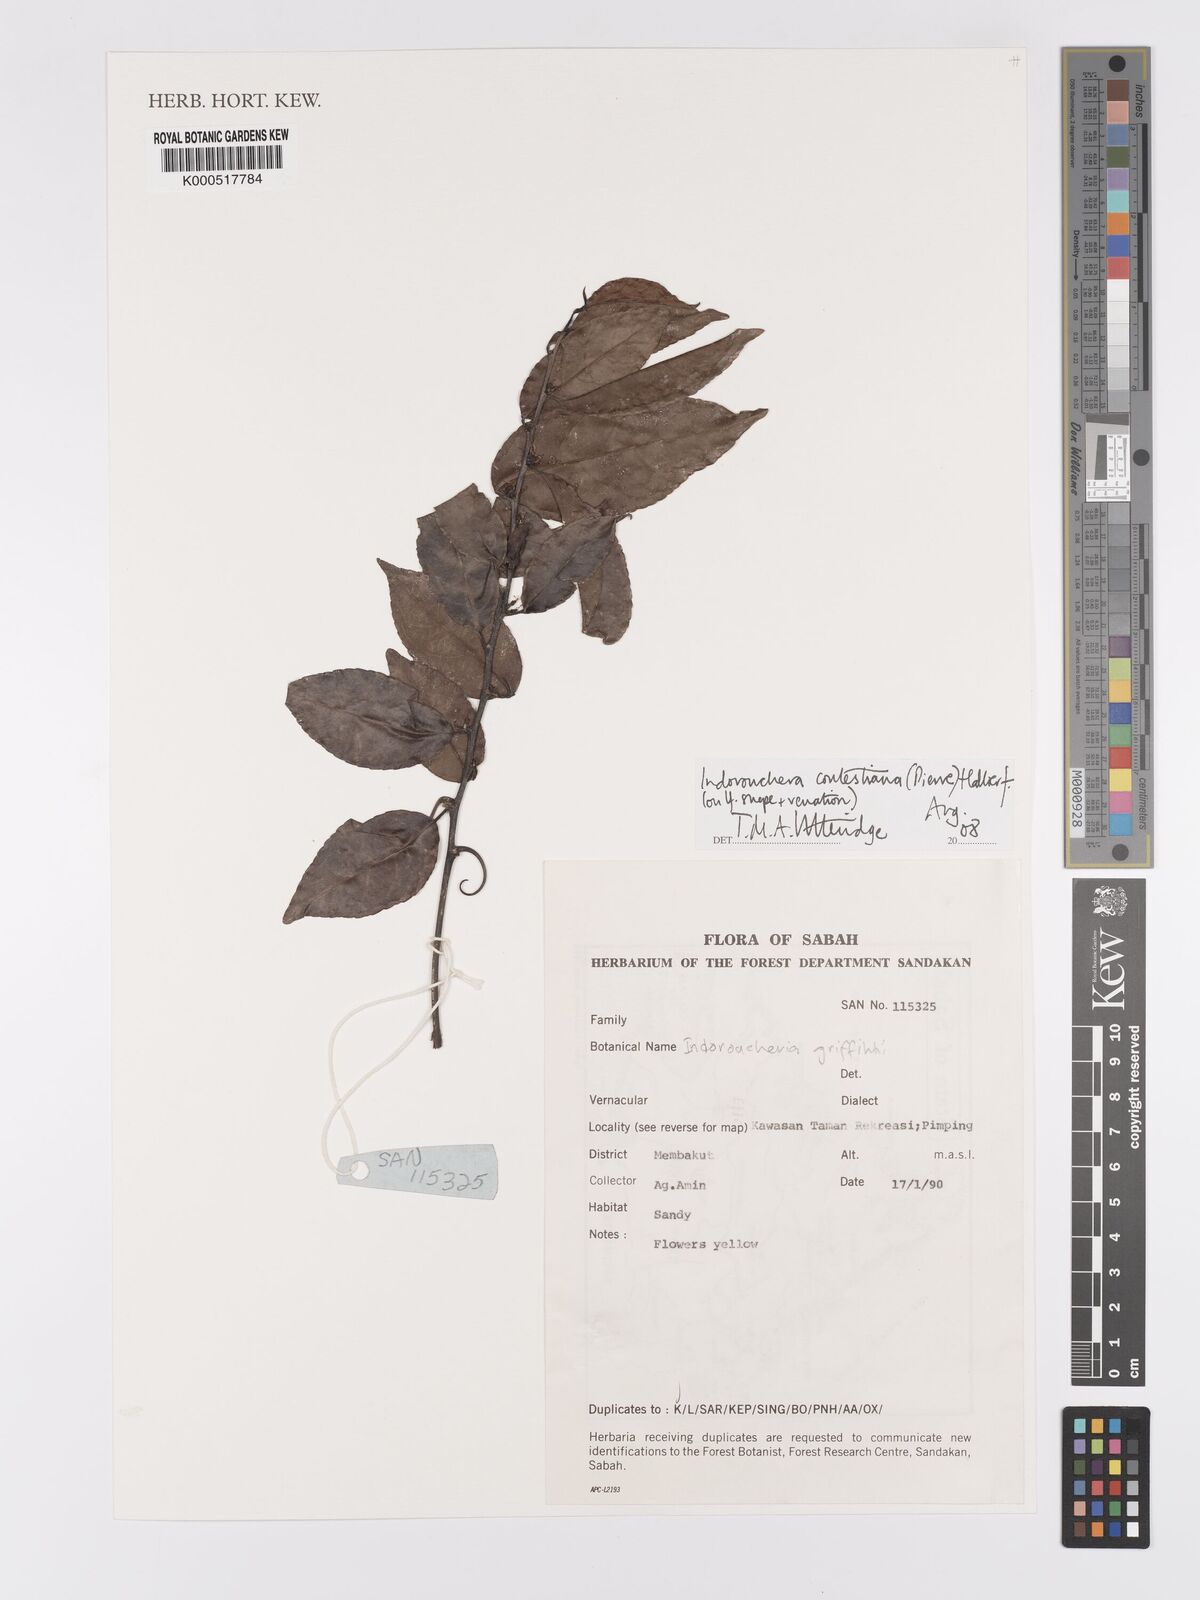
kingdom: Plantae
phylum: Tracheophyta
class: Magnoliopsida
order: Malpighiales
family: Linaceae
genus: Indorouchera
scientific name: Indorouchera contestiana
